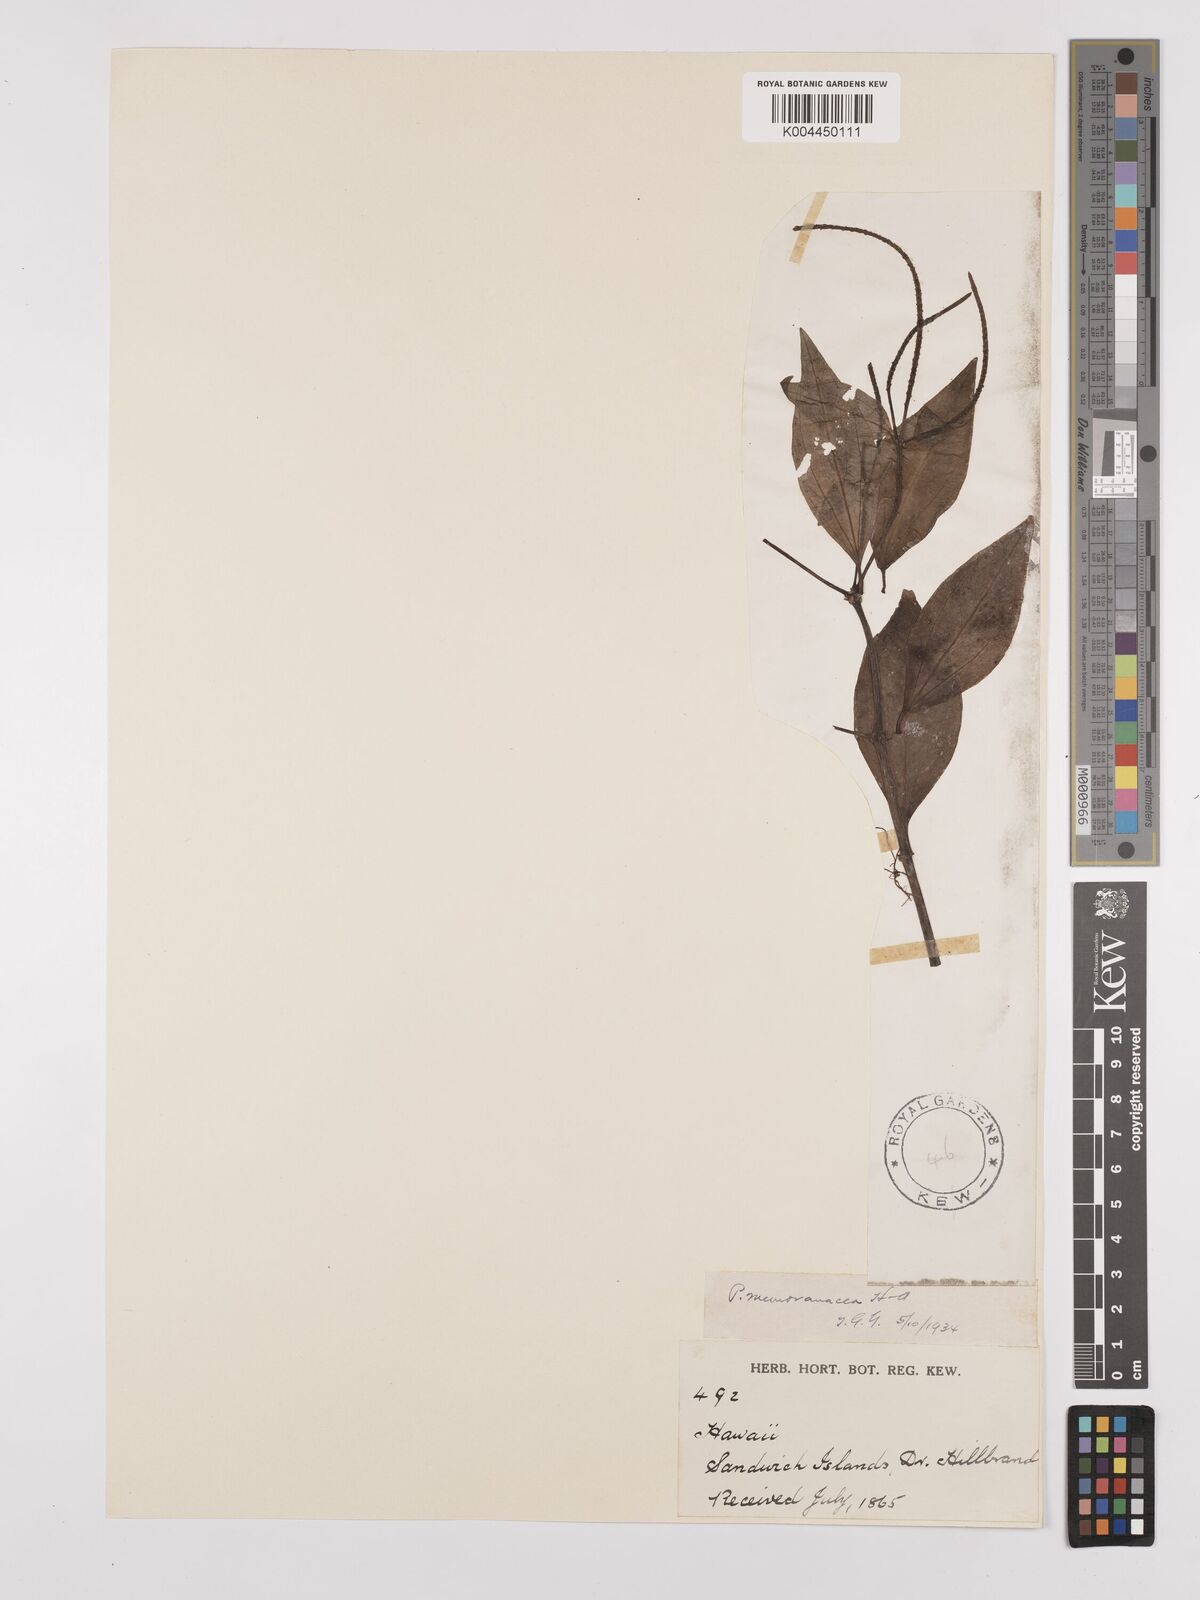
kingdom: Plantae
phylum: Tracheophyta
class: Magnoliopsida
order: Piperales
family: Piperaceae
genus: Peperomia
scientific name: Peperomia membranacea
